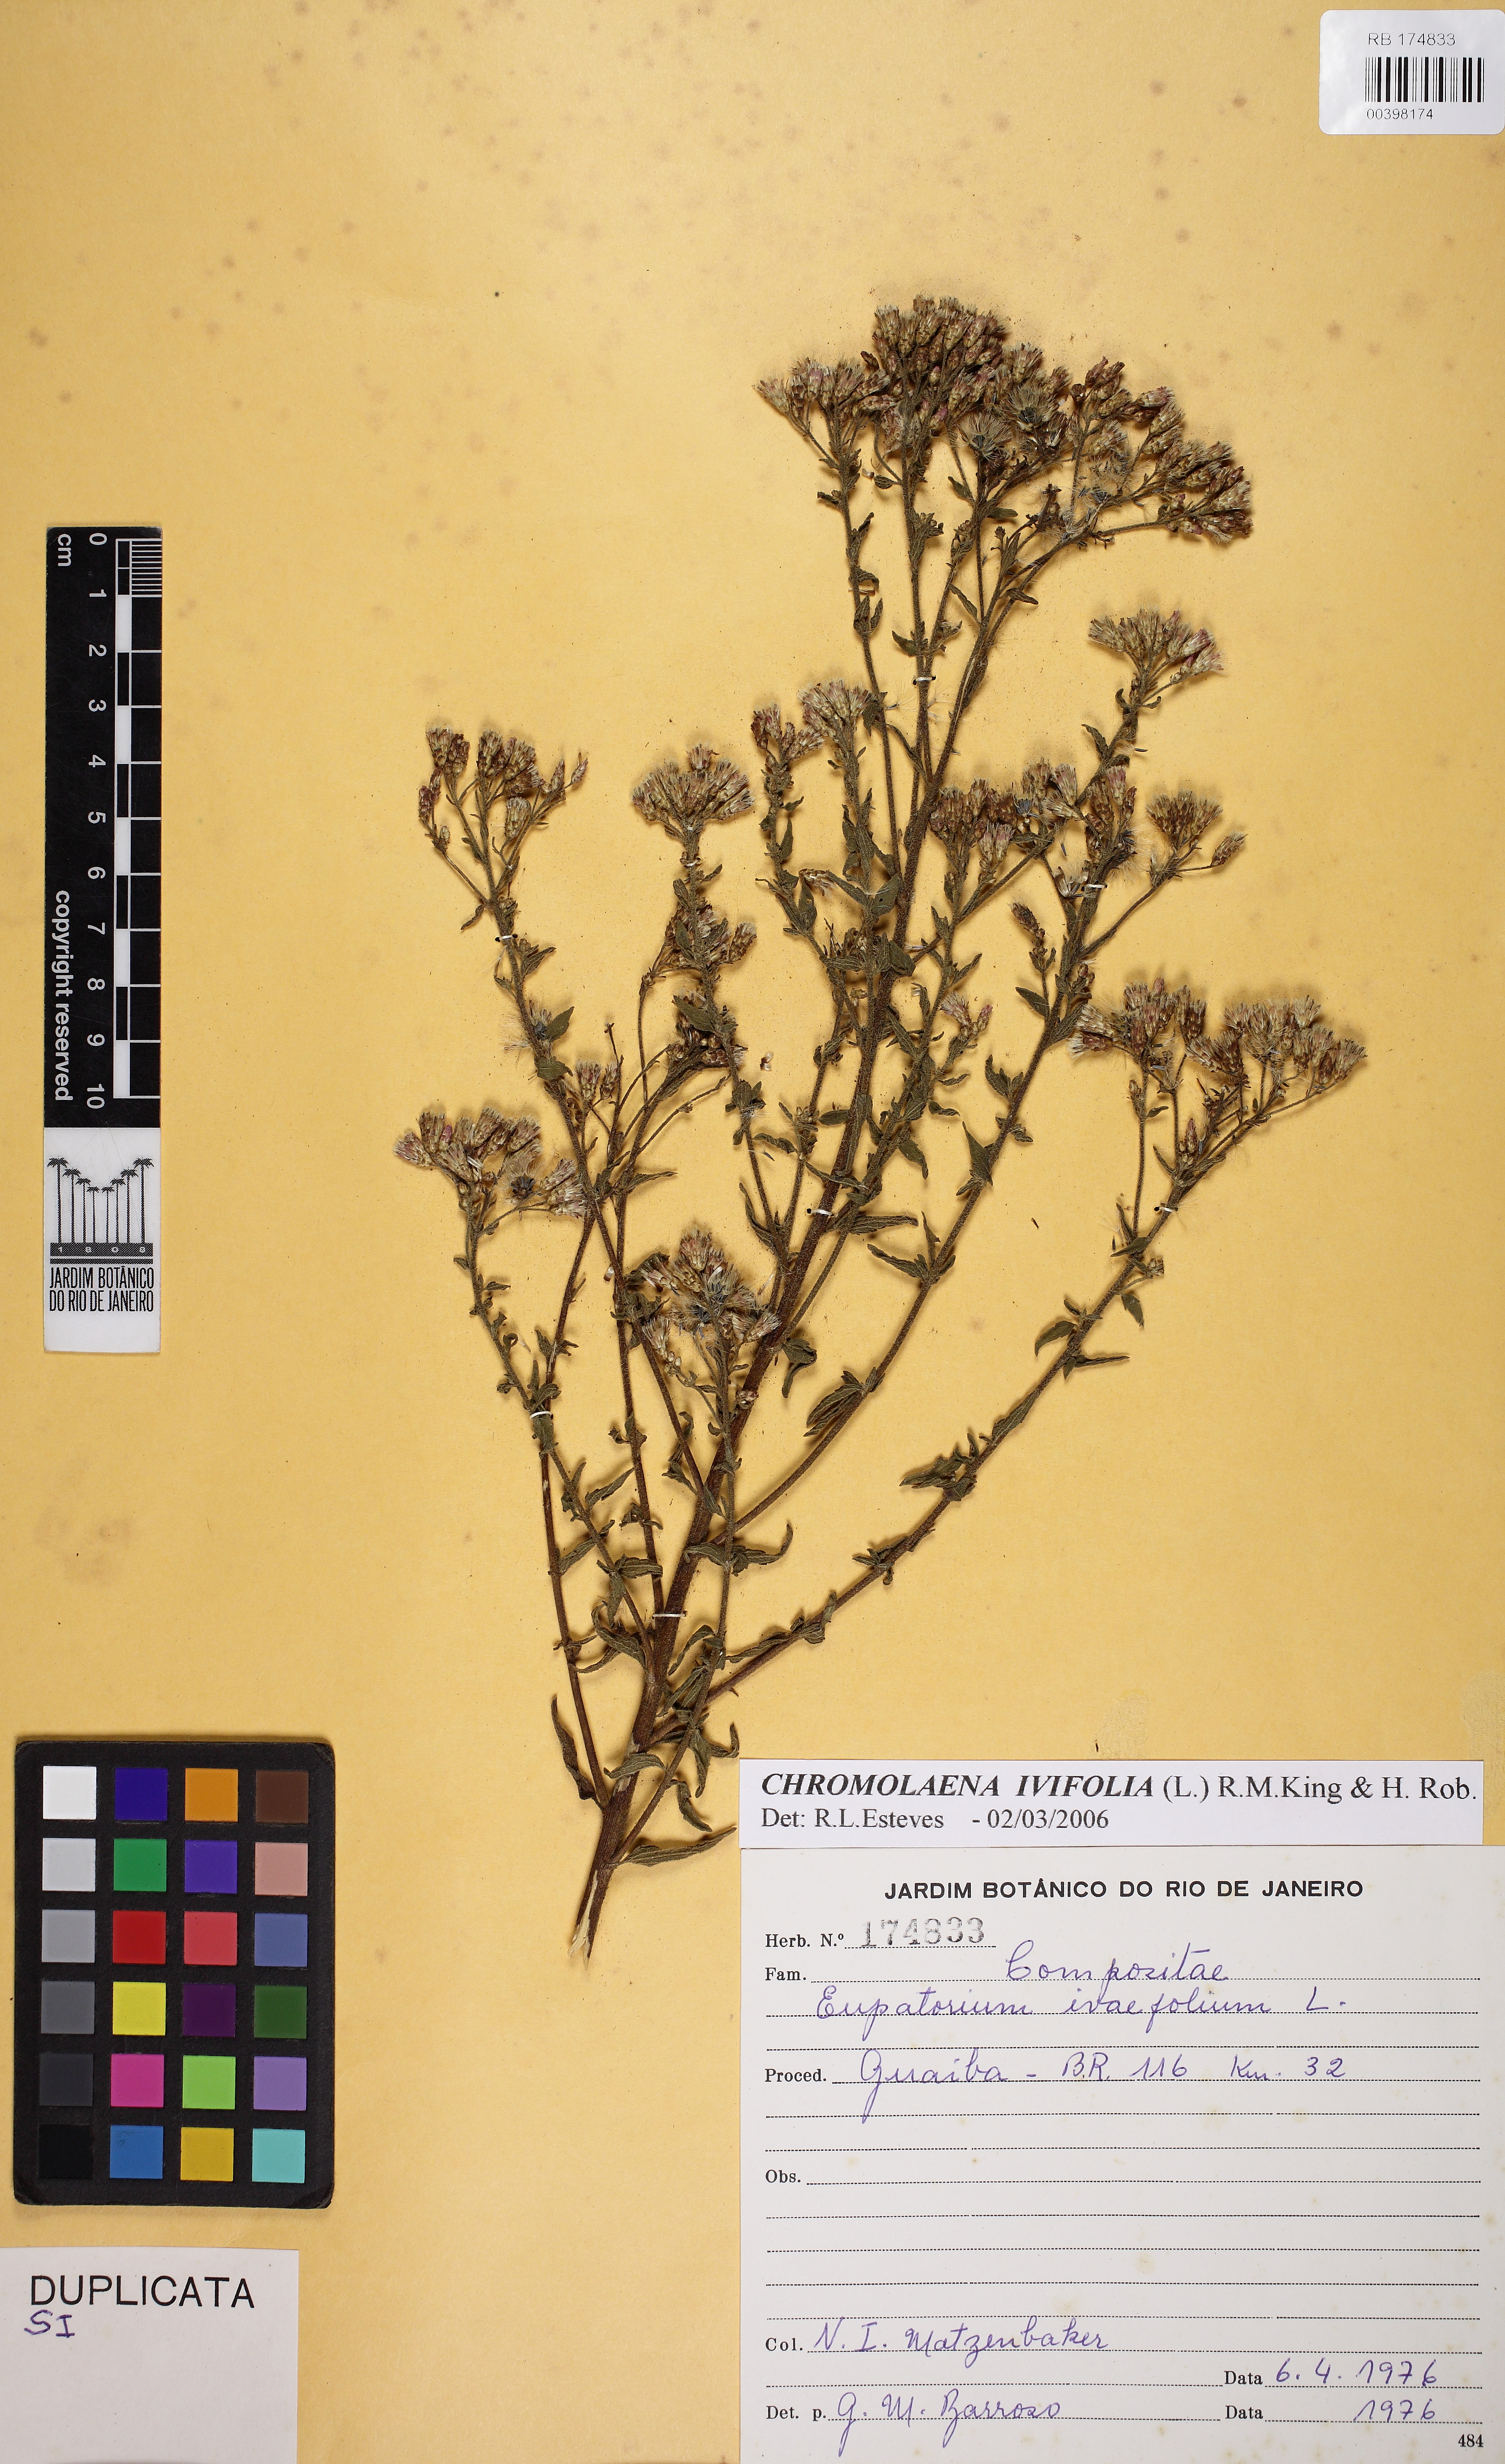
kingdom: Plantae
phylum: Tracheophyta
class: Magnoliopsida
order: Asterales
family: Asteraceae
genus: Chromolaena
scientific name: Chromolaena ivifolia
